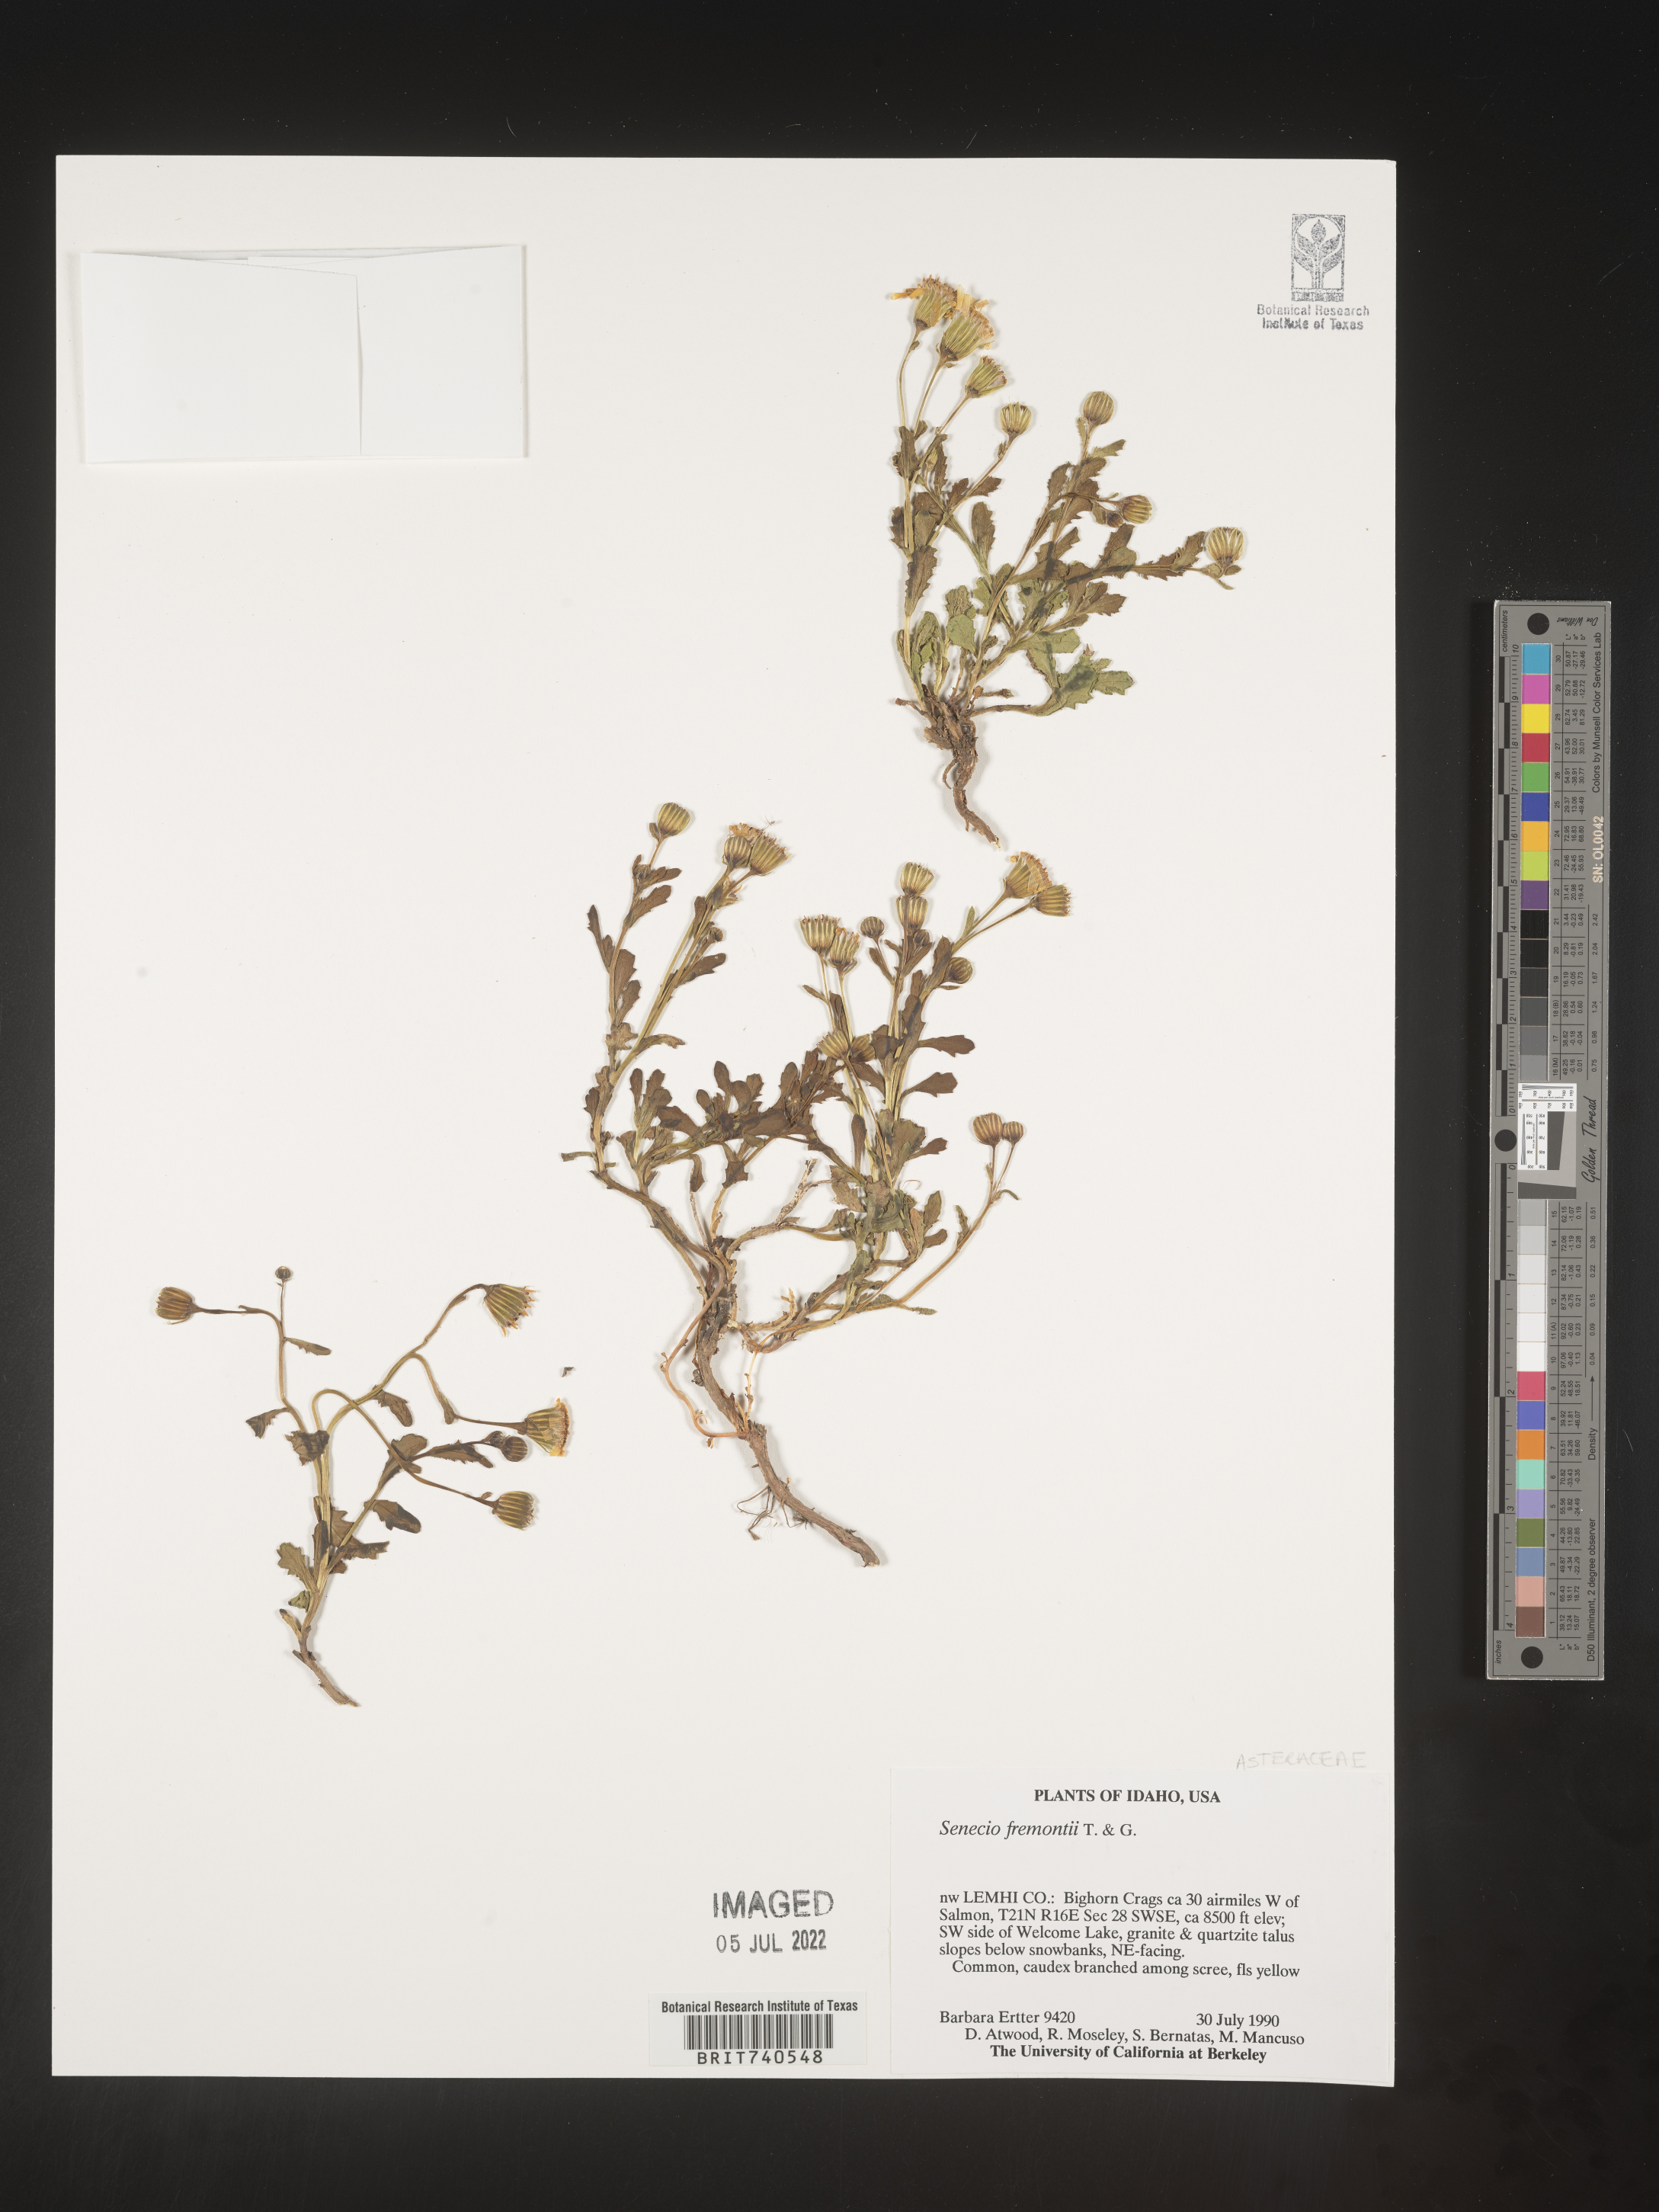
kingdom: Plantae
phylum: Tracheophyta
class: Magnoliopsida
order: Asterales
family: Asteraceae
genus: Senecio
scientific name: Senecio fremontii
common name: Fremont's groundsel
